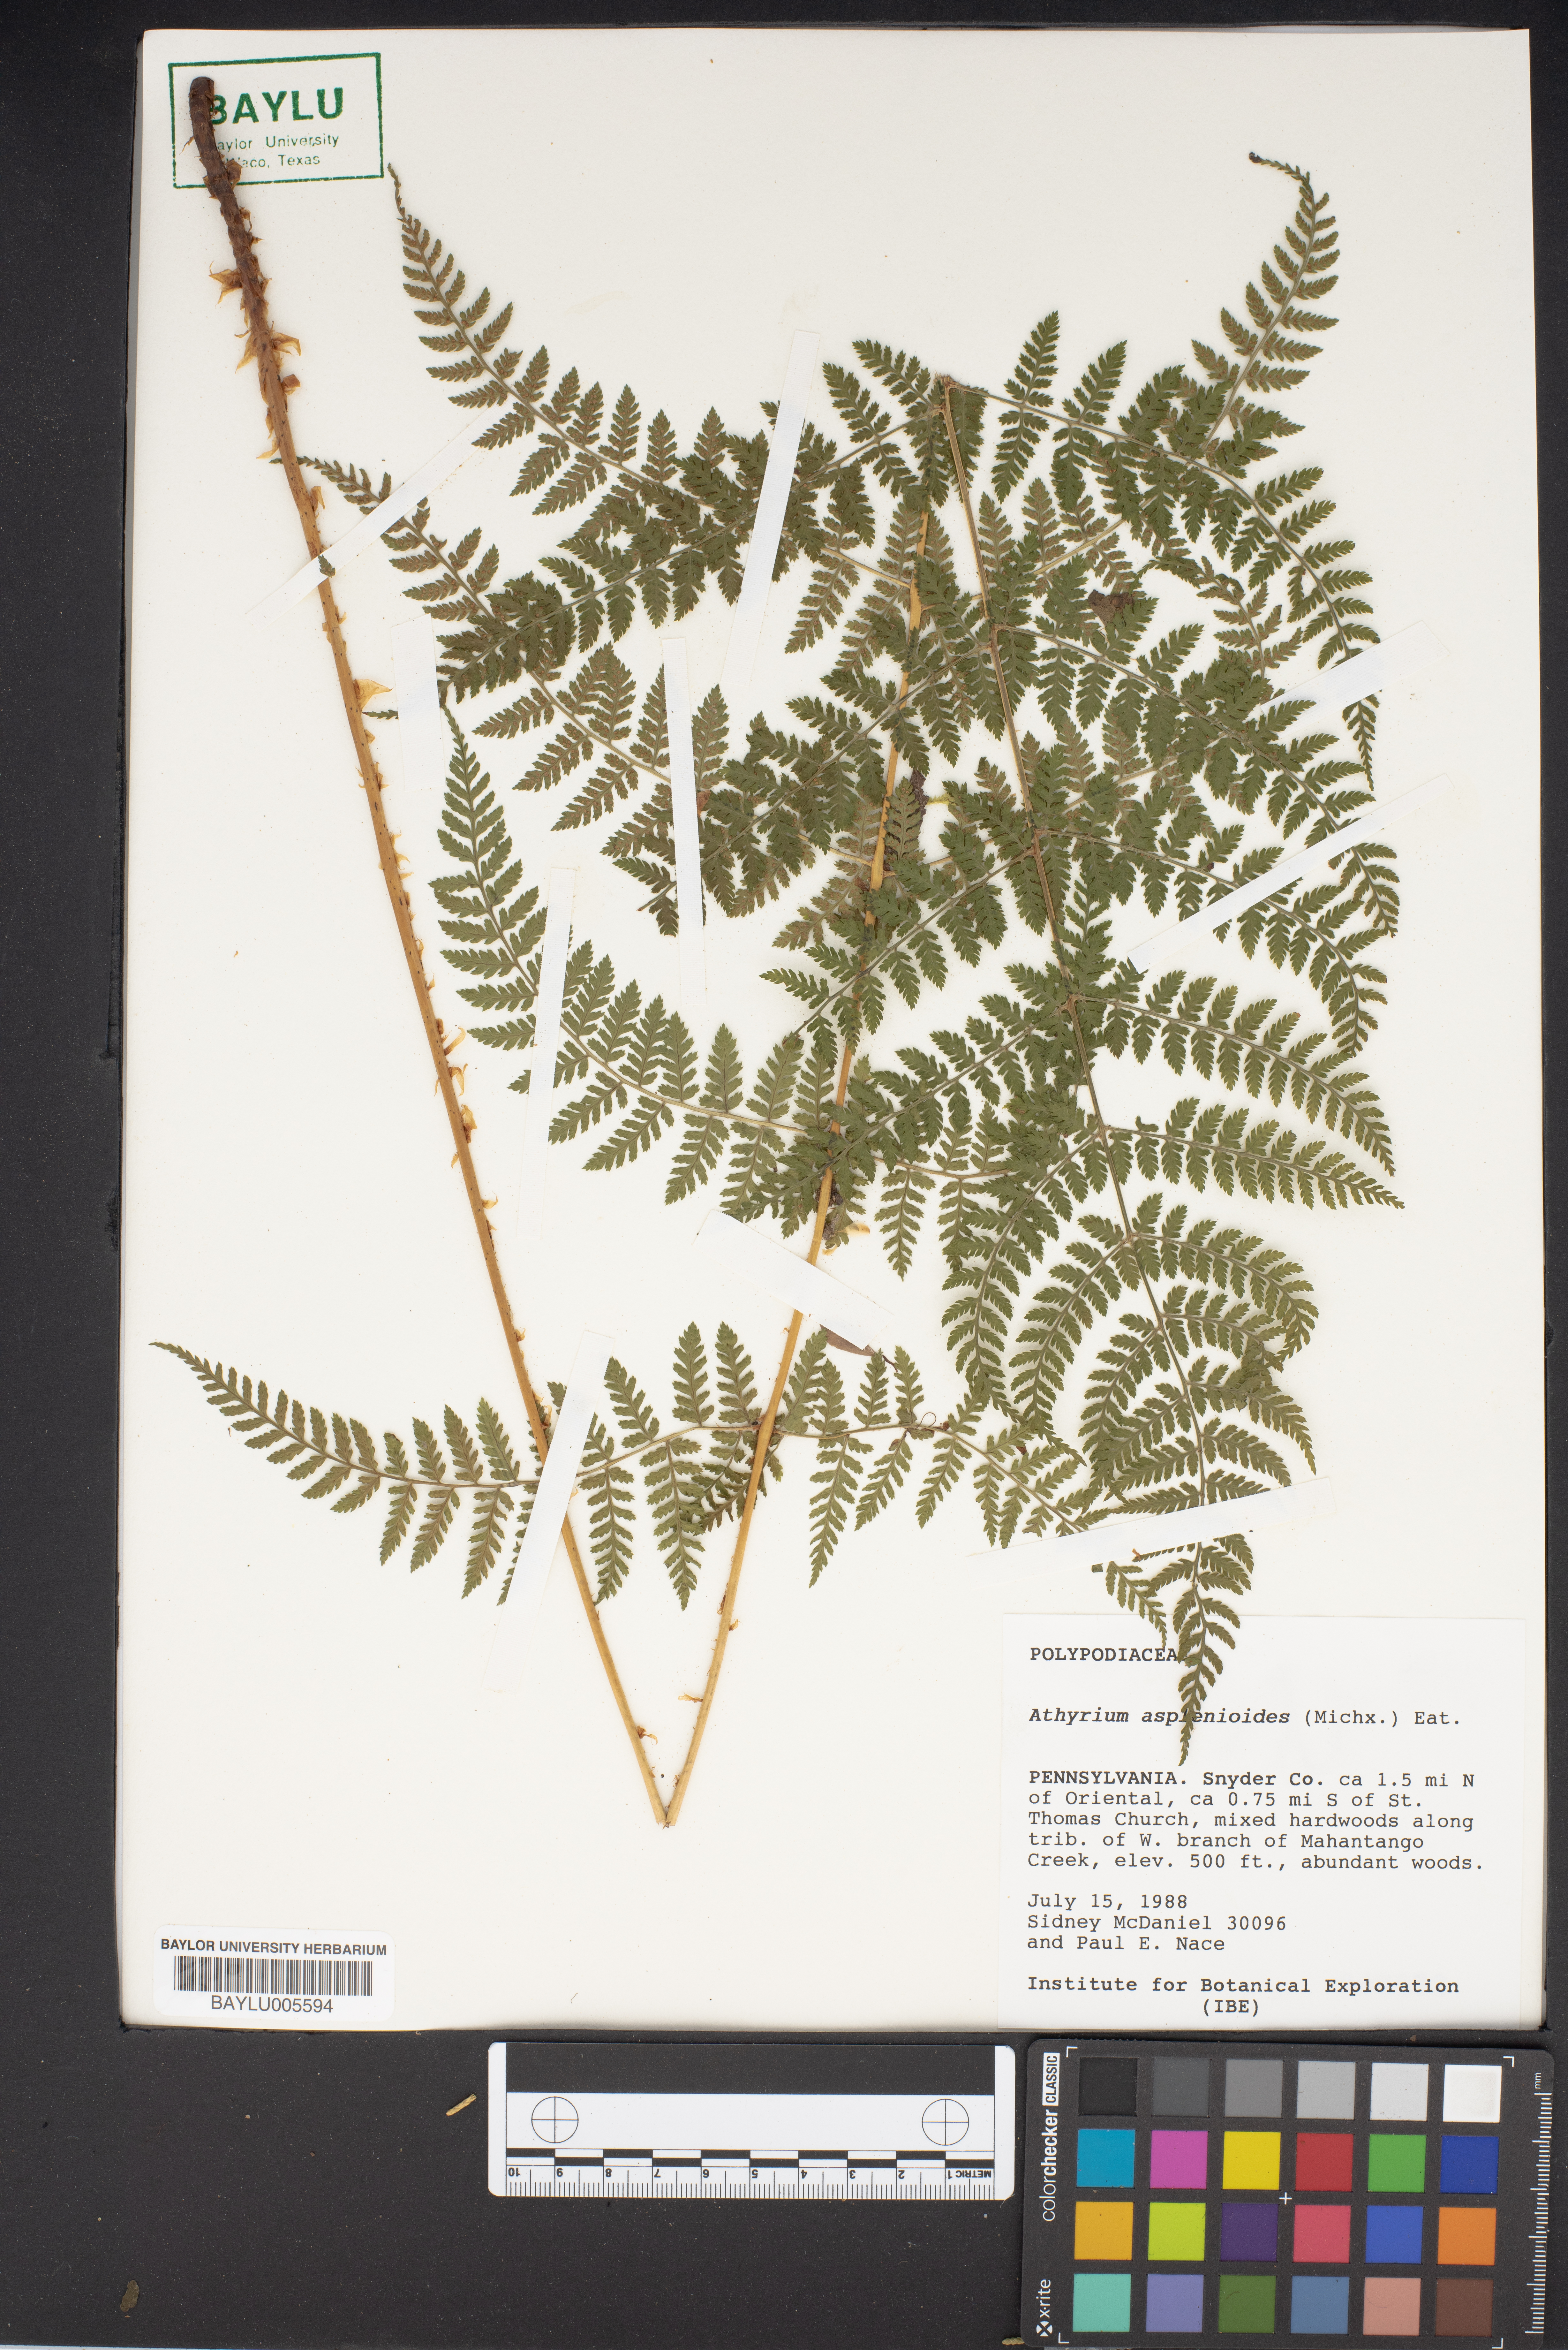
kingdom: Plantae
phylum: Tracheophyta
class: Polypodiopsida
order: Polypodiales
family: Athyriaceae
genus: Athyrium
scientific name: Athyrium asplenioides
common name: Southern lady fern
